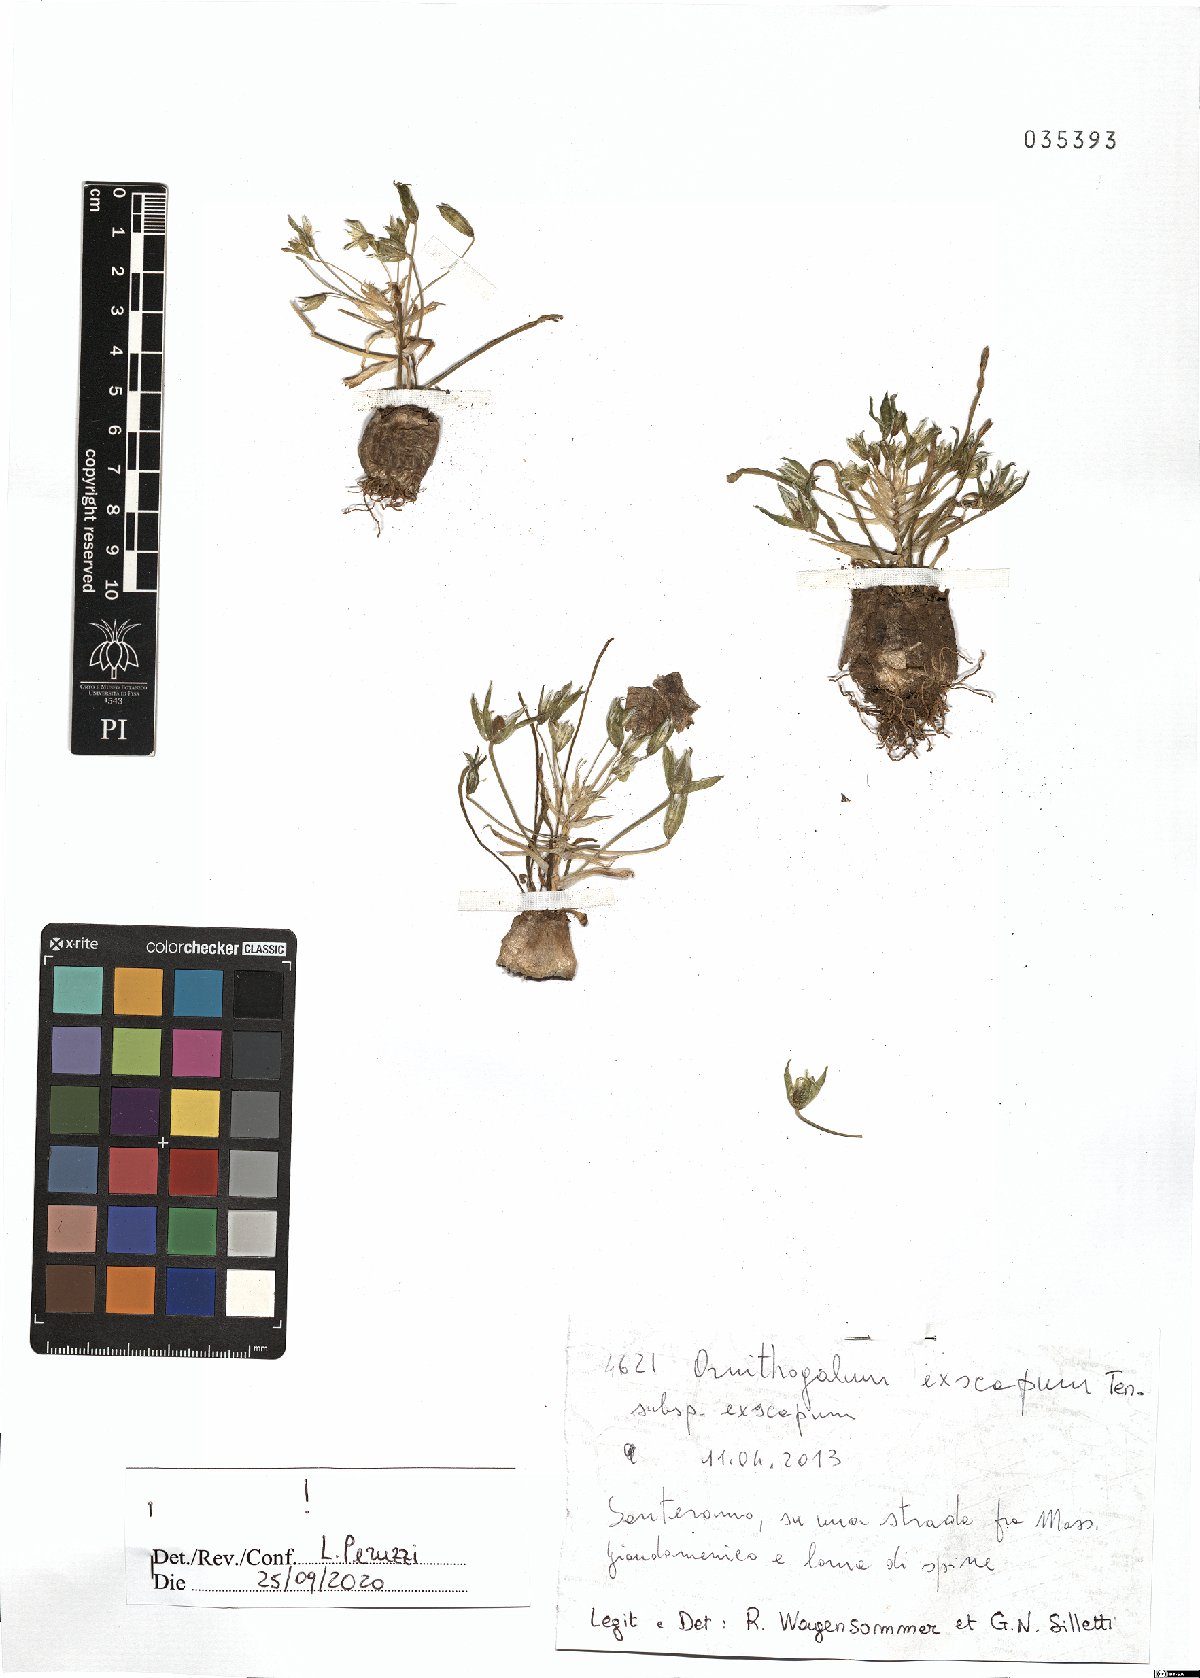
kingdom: Plantae
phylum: Tracheophyta
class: Liliopsida
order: Asparagales
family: Asparagaceae
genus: Ornithogalum
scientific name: Ornithogalum exscapum
